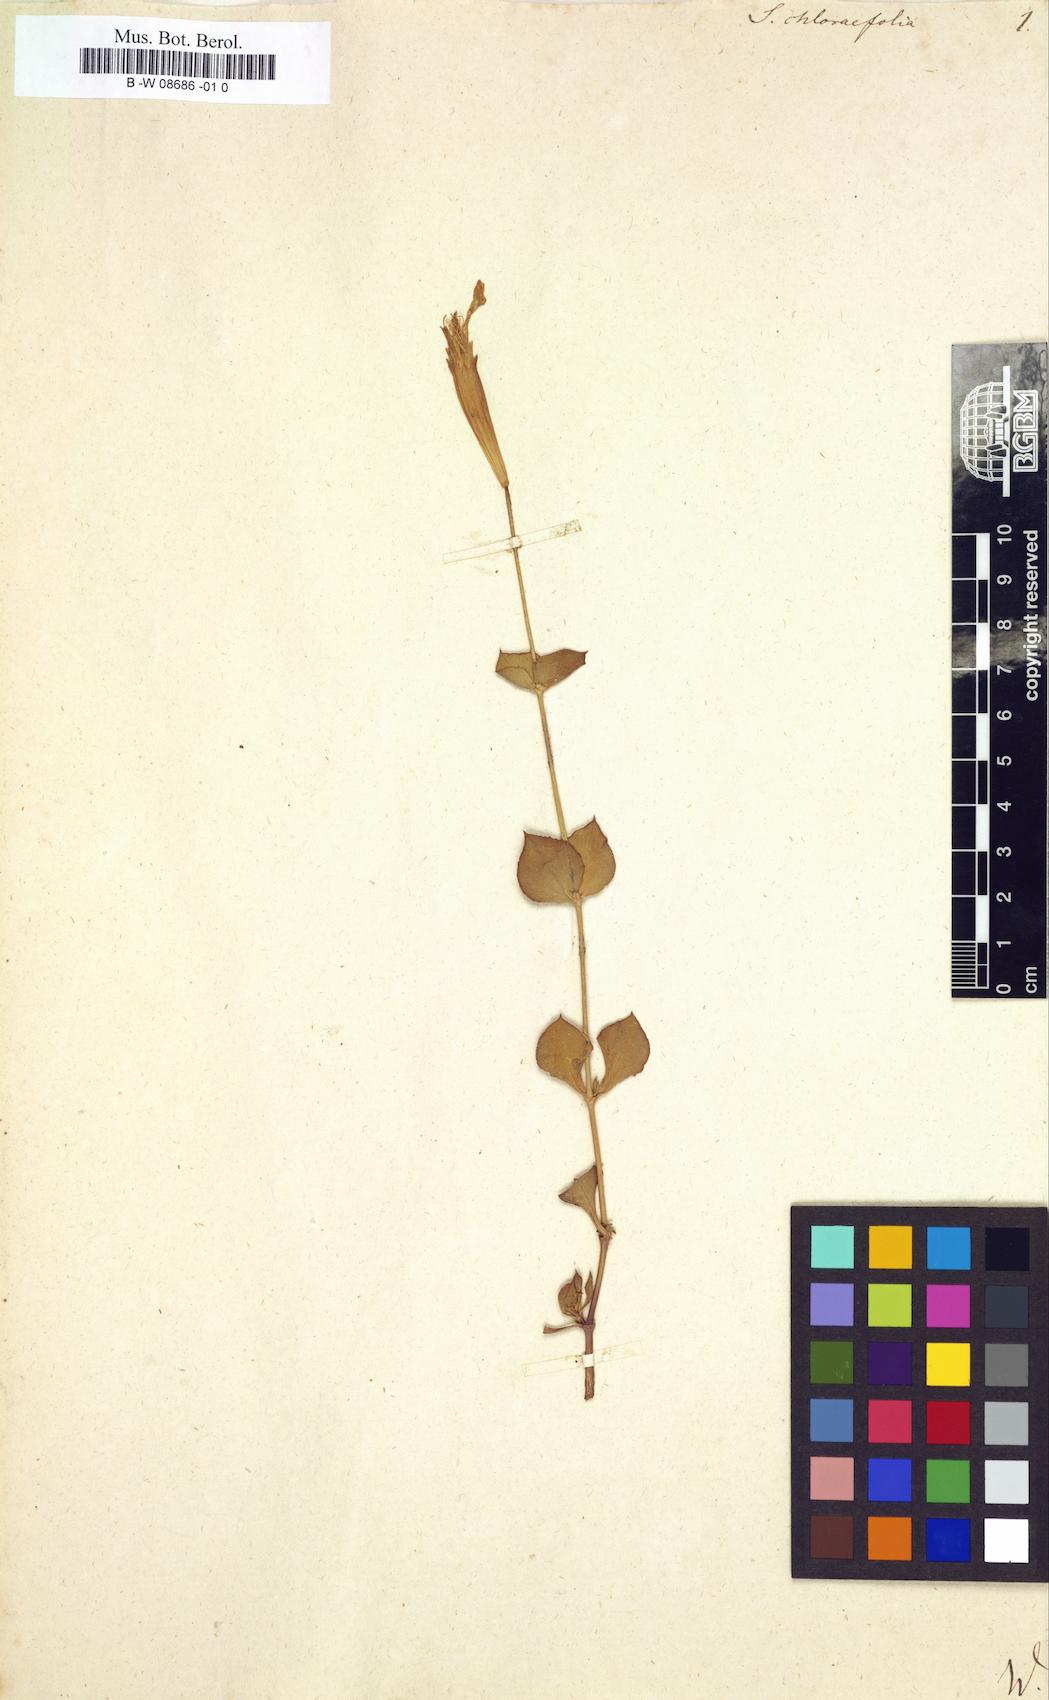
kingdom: Plantae
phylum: Tracheophyta
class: Magnoliopsida
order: Caryophyllales
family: Caryophyllaceae
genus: Silene
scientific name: Silene chlorifolia
